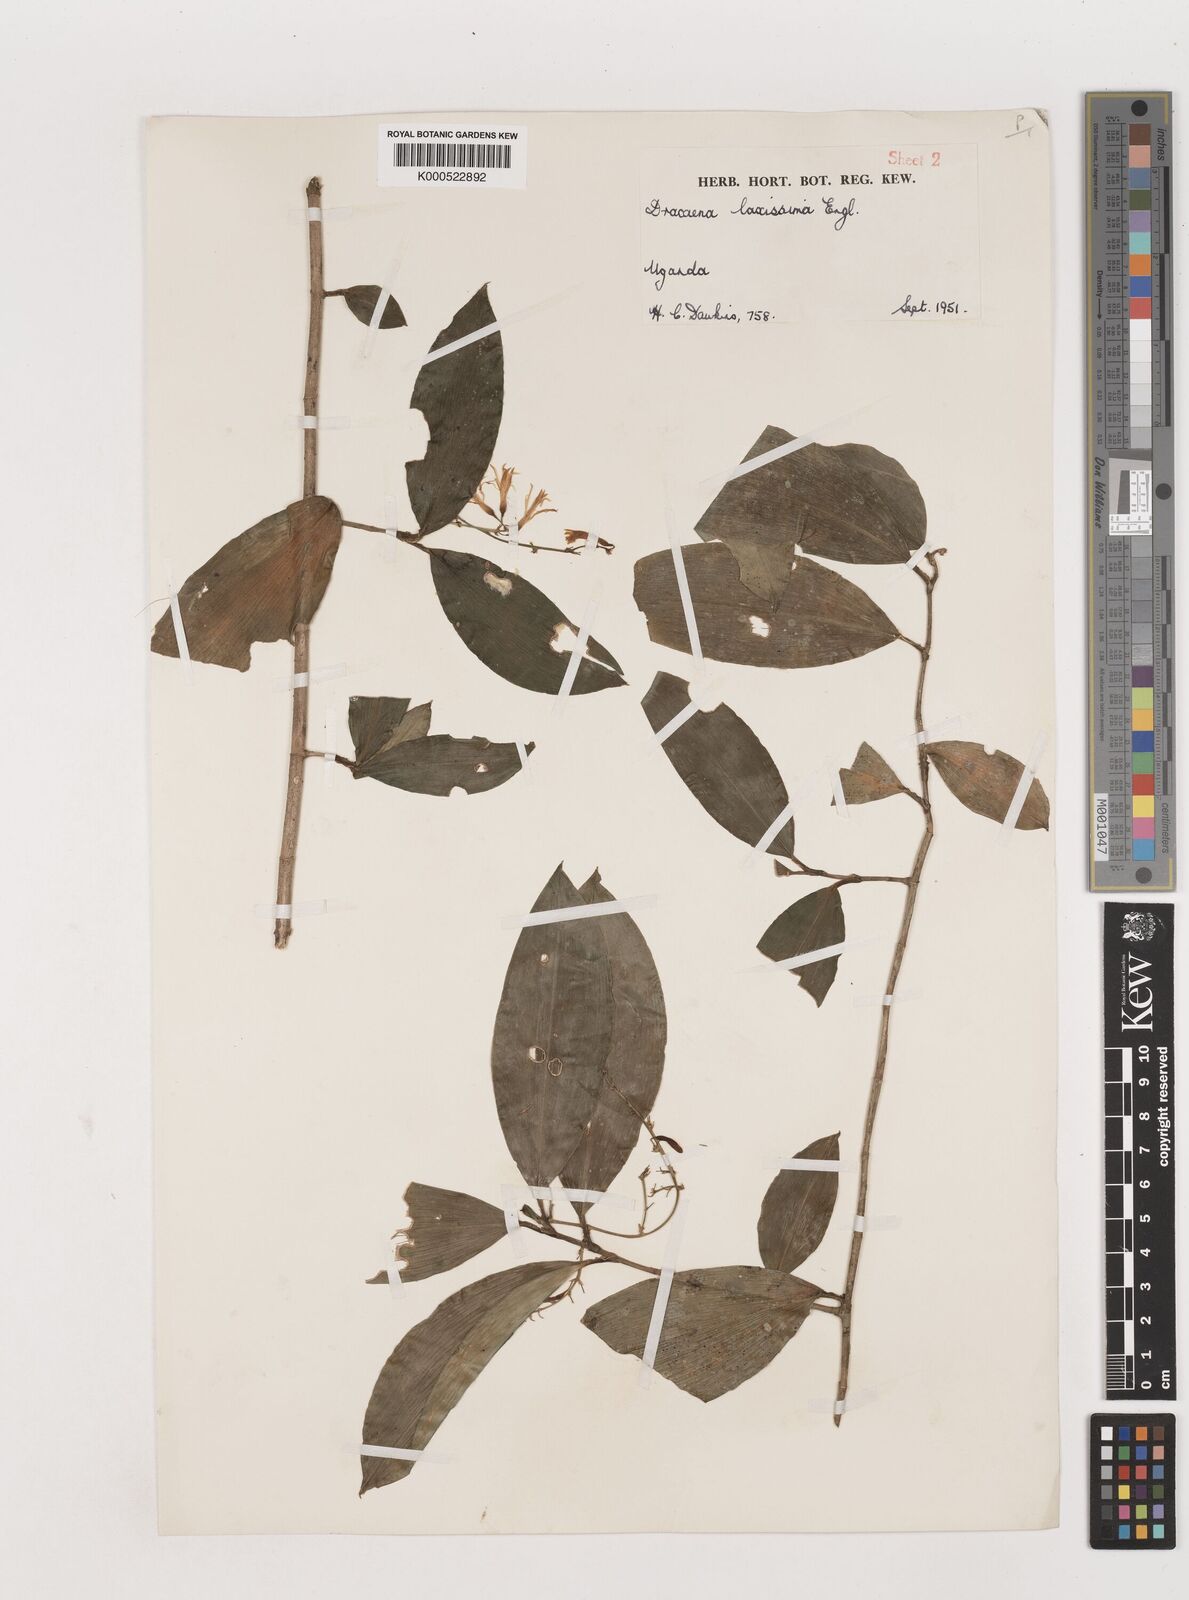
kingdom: Plantae
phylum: Tracheophyta
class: Liliopsida
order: Asparagales
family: Asparagaceae
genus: Dracaena
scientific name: Dracaena laxissima
